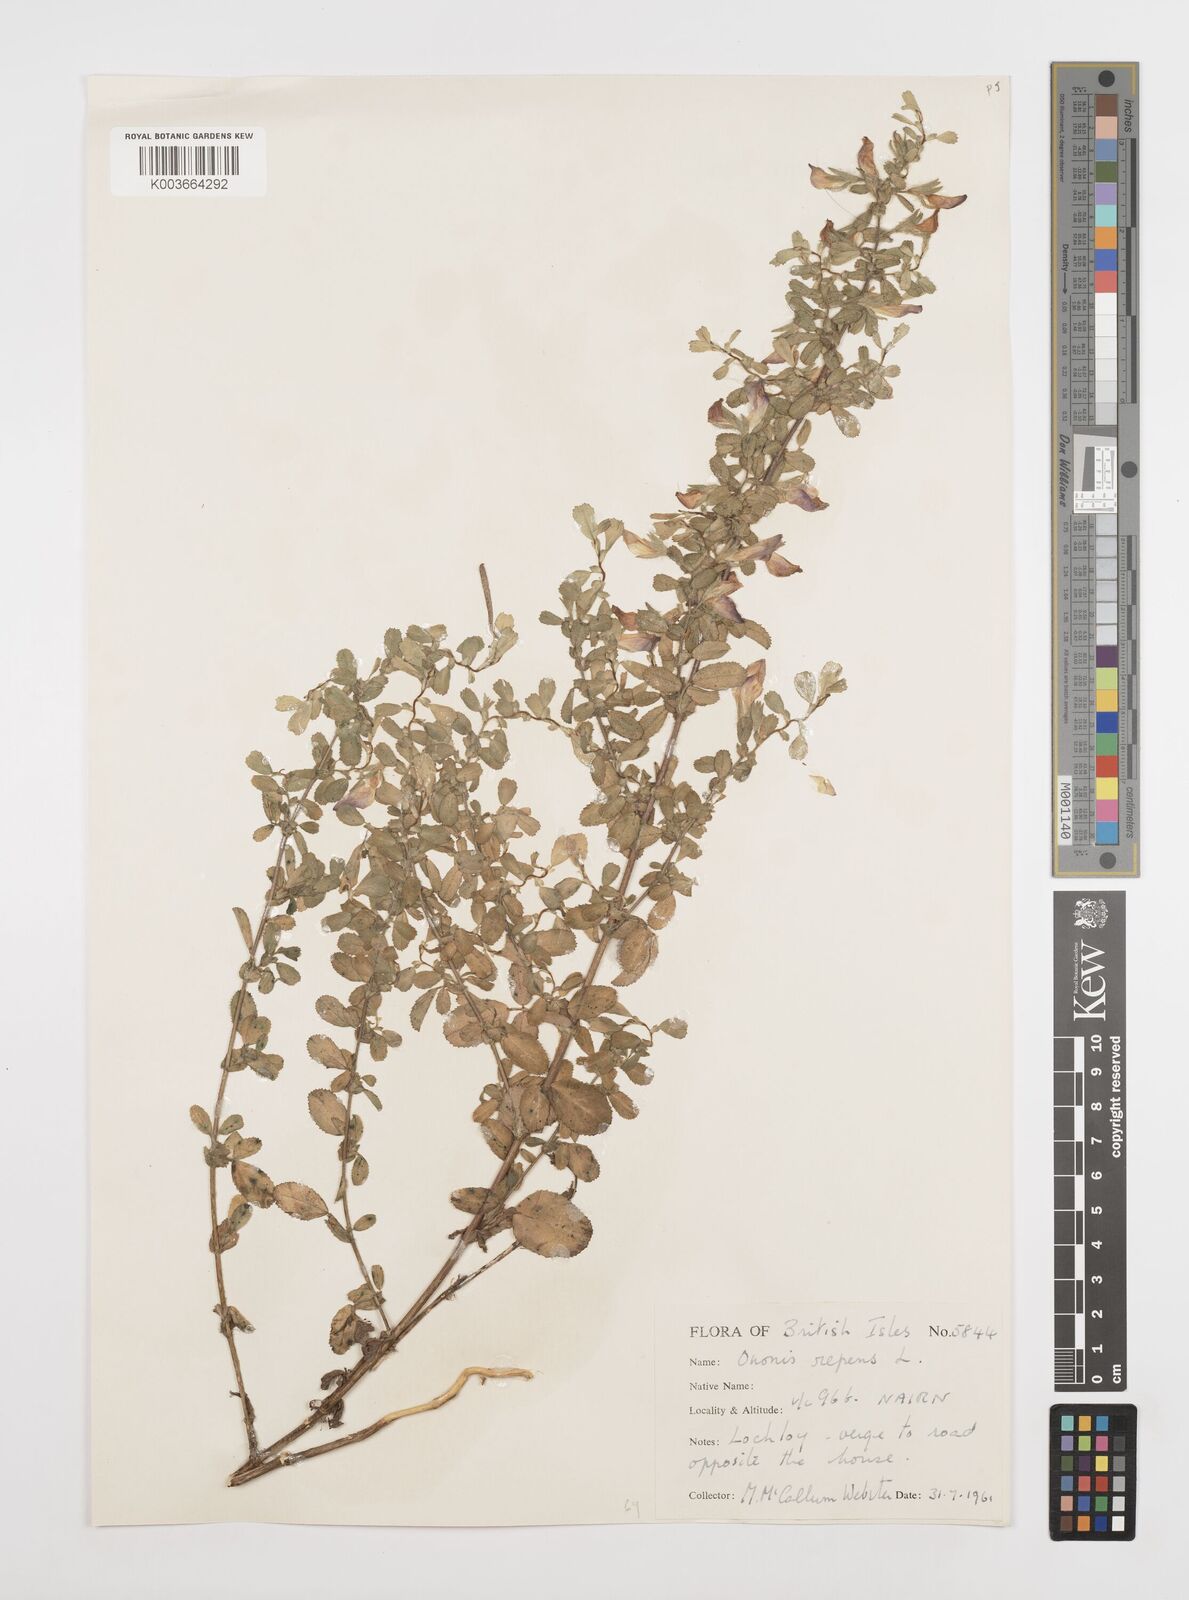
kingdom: Plantae
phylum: Tracheophyta
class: Magnoliopsida
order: Fabales
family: Fabaceae
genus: Ononis
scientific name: Ononis spinosa
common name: Spiny restharrow
